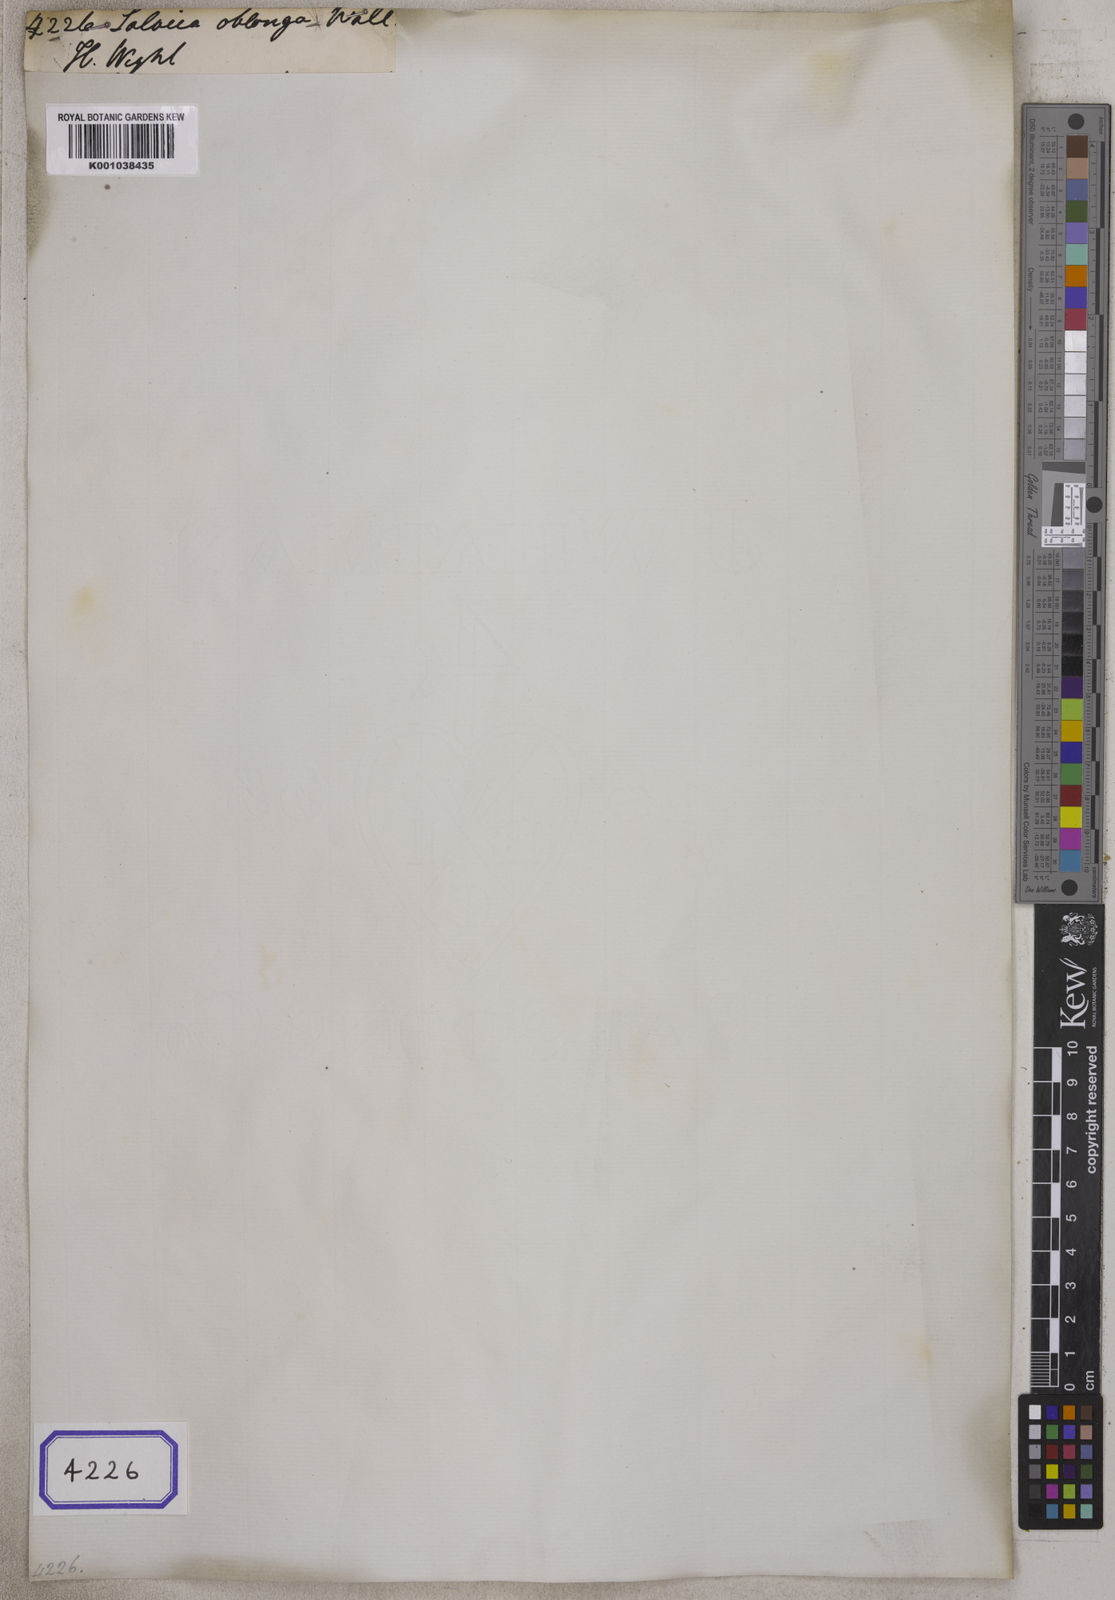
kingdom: Plantae
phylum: Tracheophyta
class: Magnoliopsida
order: Celastrales
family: Celastraceae
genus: Salacia
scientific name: Salacia
